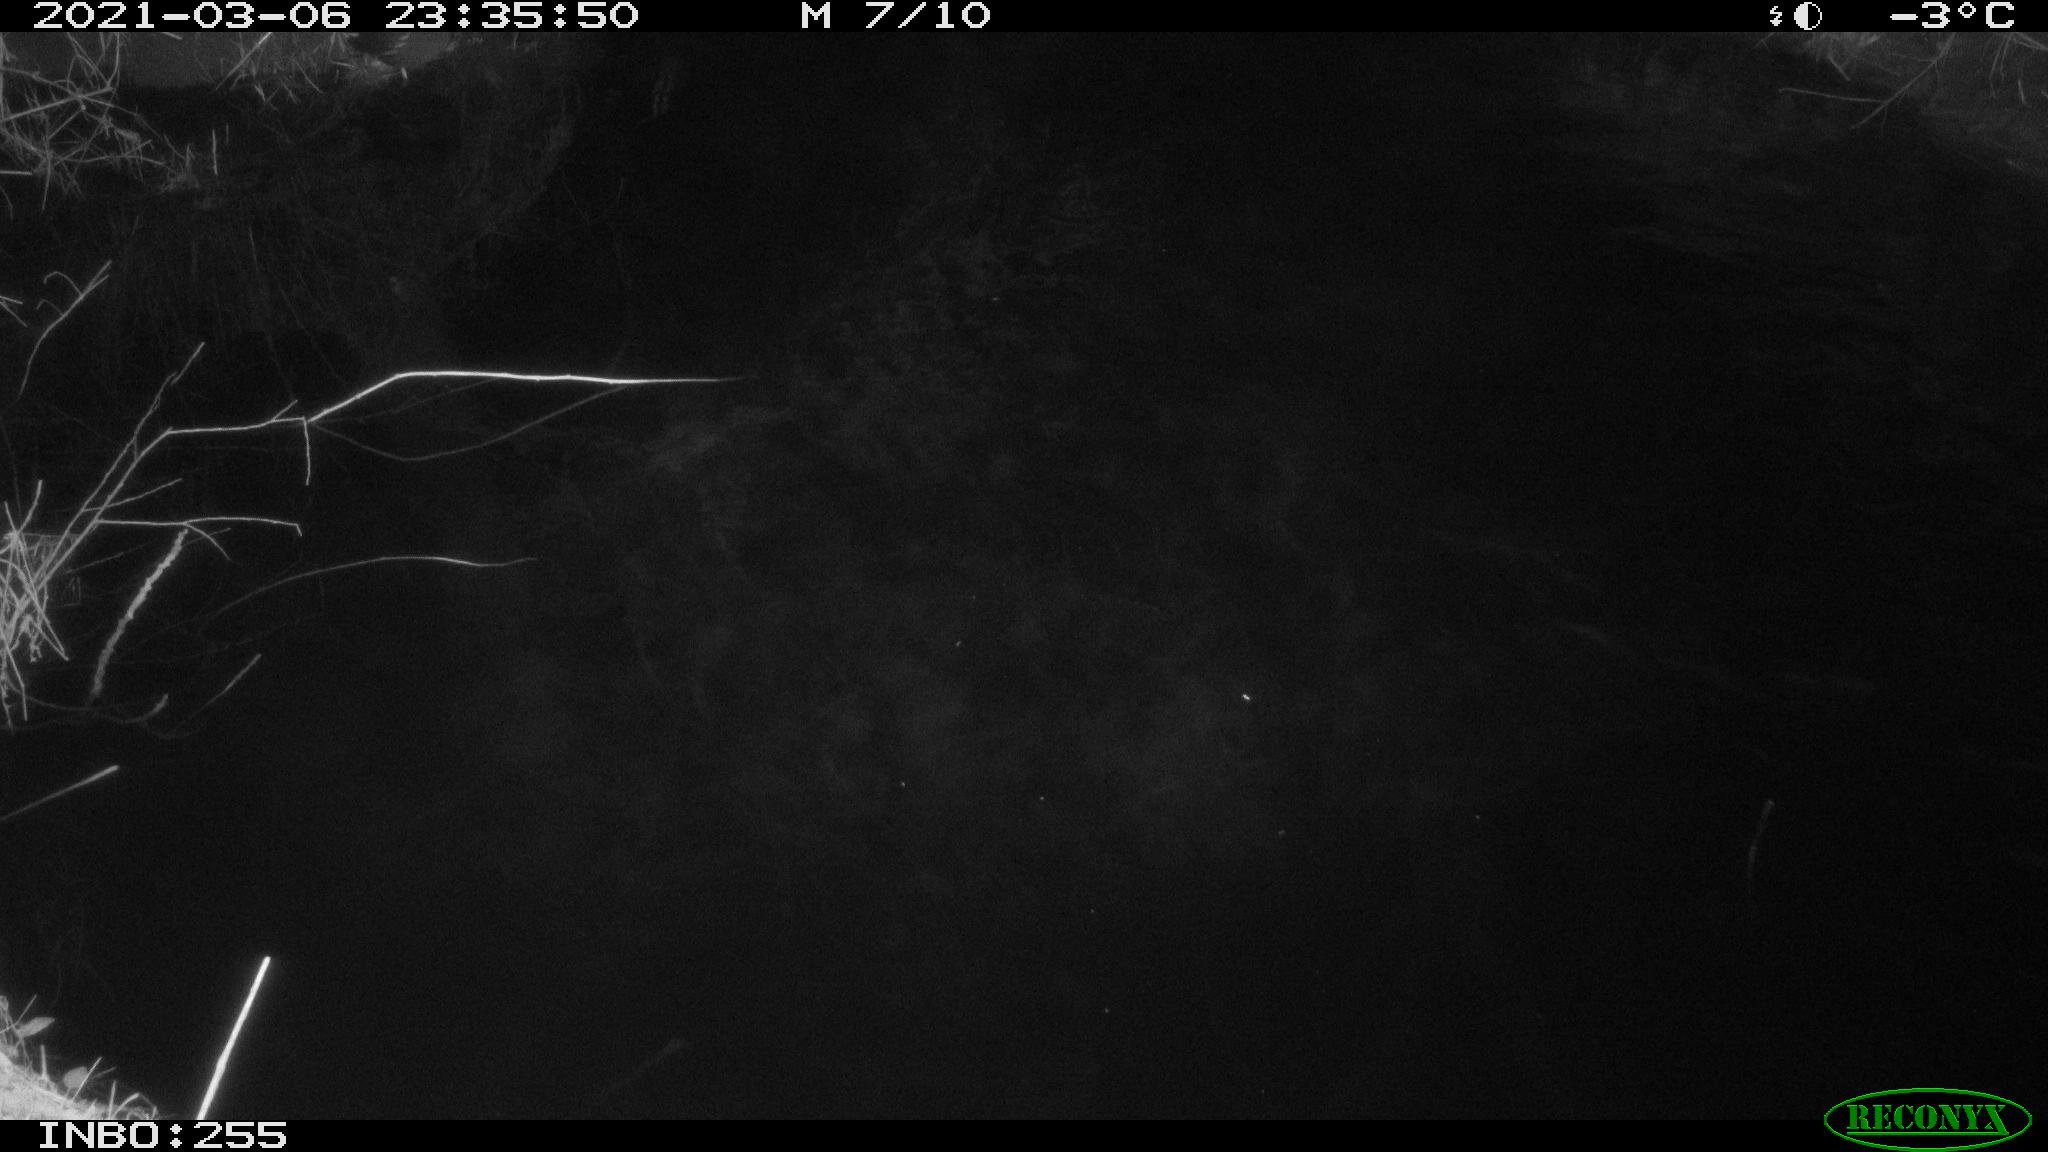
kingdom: Animalia
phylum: Chordata
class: Aves
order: Anseriformes
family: Anatidae
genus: Anas
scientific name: Anas platyrhynchos
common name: Mallard
